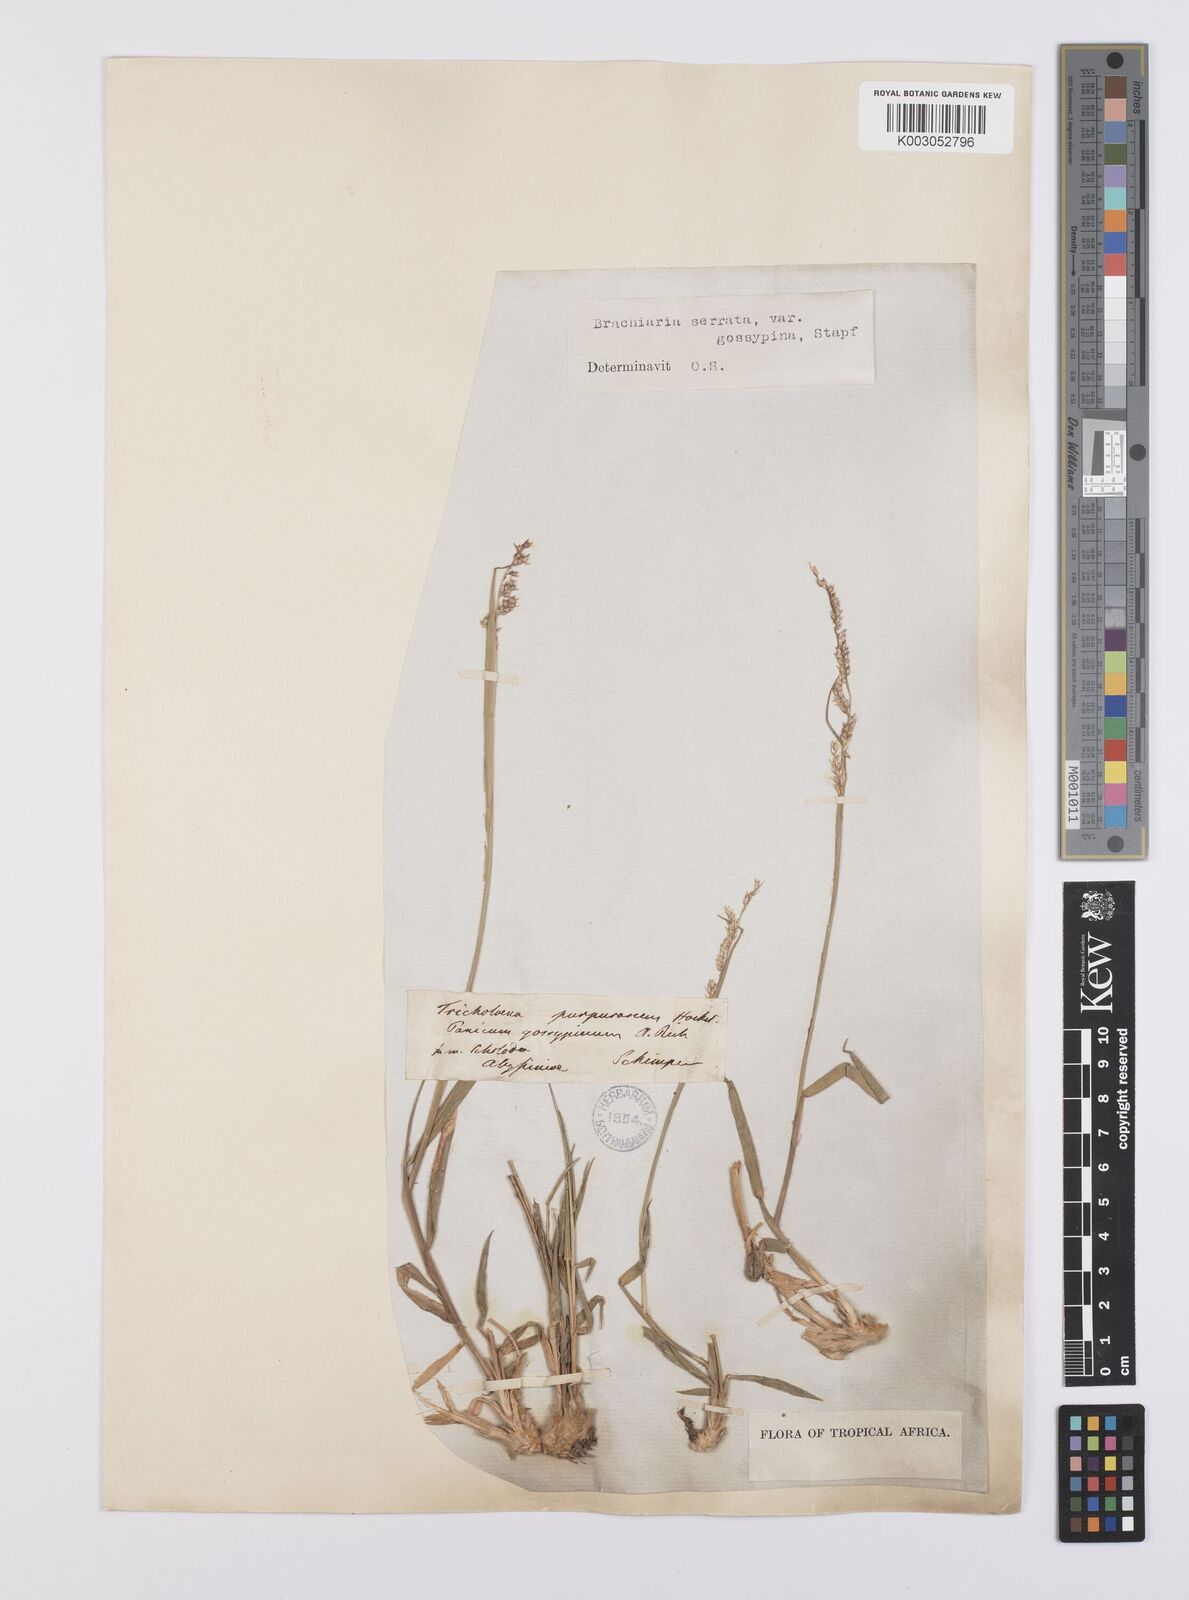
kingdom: Plantae
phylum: Tracheophyta
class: Liliopsida
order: Poales
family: Poaceae
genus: Urochloa
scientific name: Urochloa serrata
